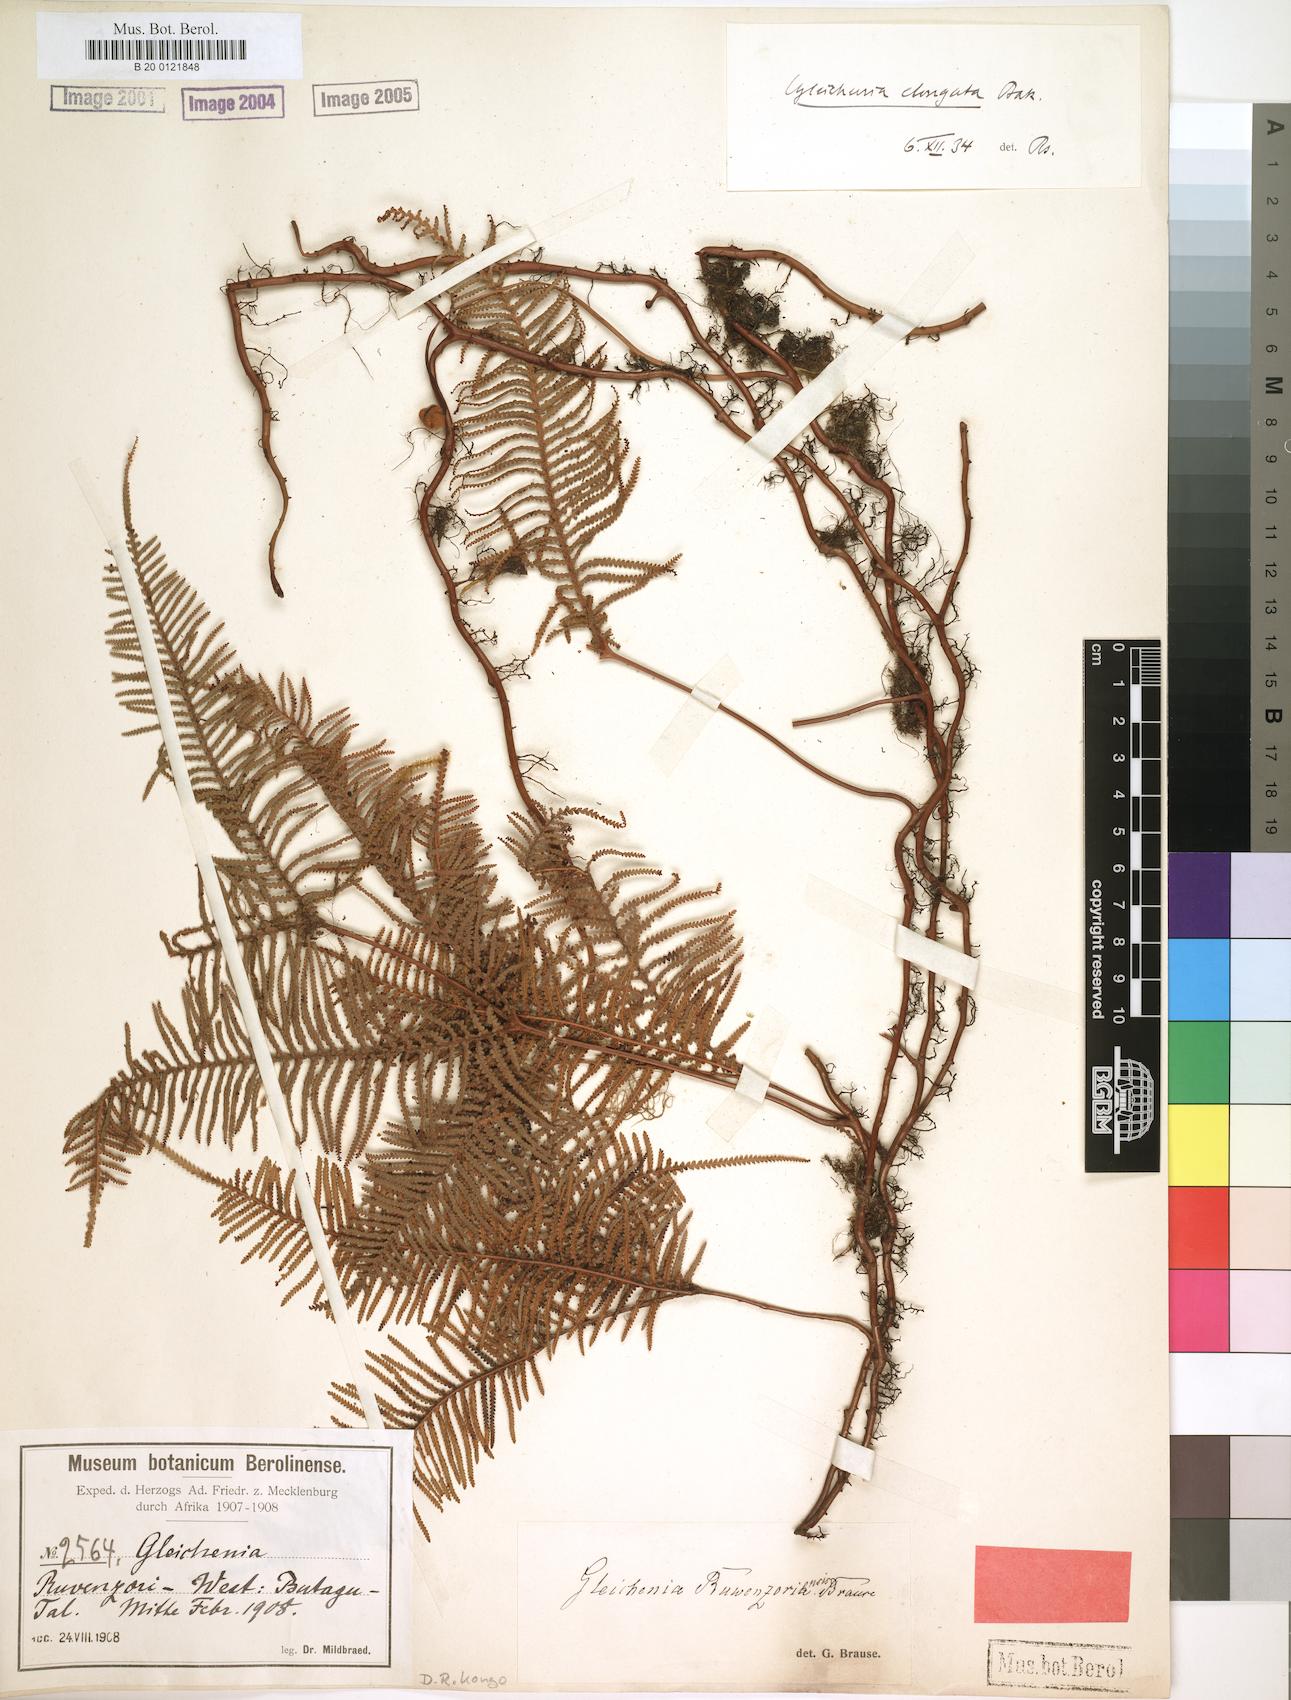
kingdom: Plantae
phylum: Tracheophyta
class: Polypodiopsida
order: Gleicheniales
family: Gleicheniaceae
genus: Gleichenia
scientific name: Gleichenia elongata
